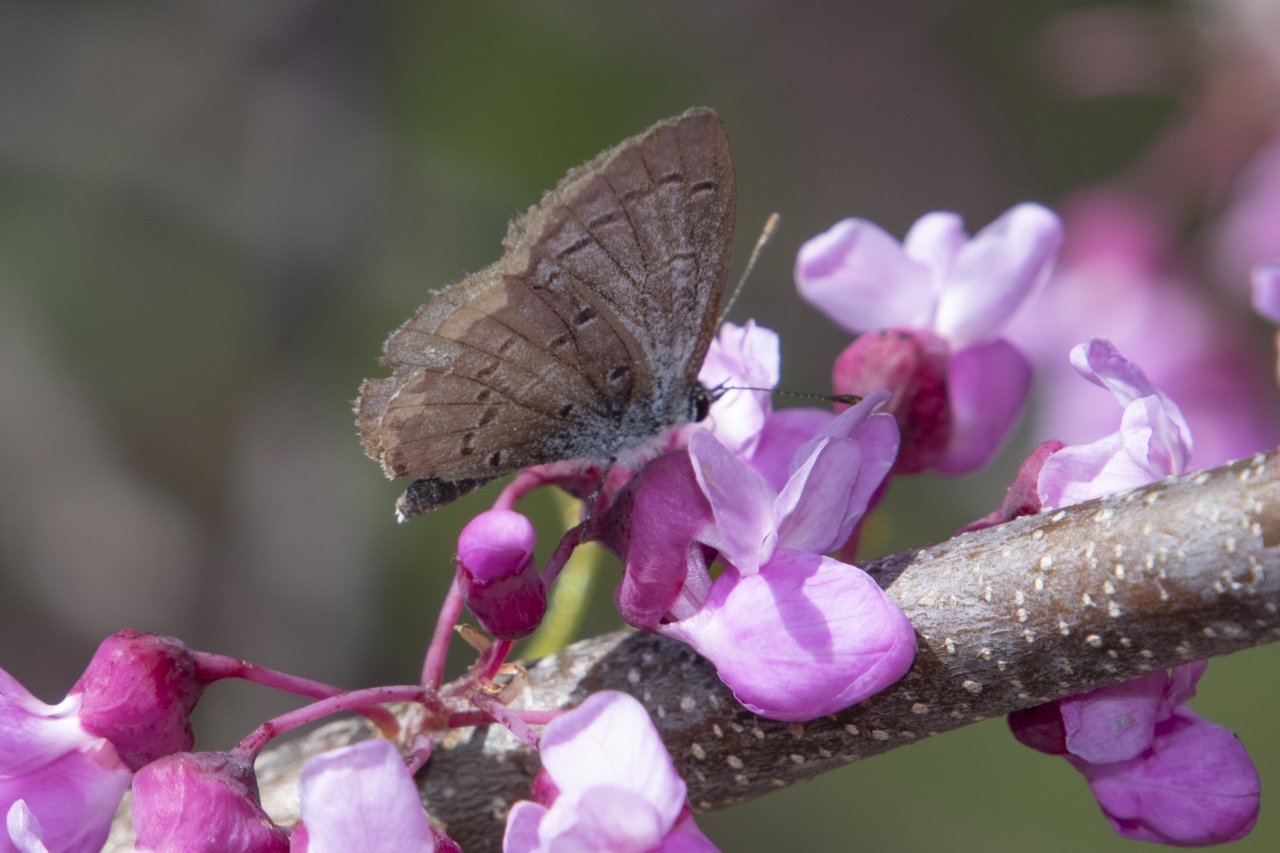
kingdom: Animalia
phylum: Arthropoda
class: Insecta
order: Lepidoptera
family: Lycaenidae
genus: Celastrina
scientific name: Celastrina ladon
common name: Spring Azure
